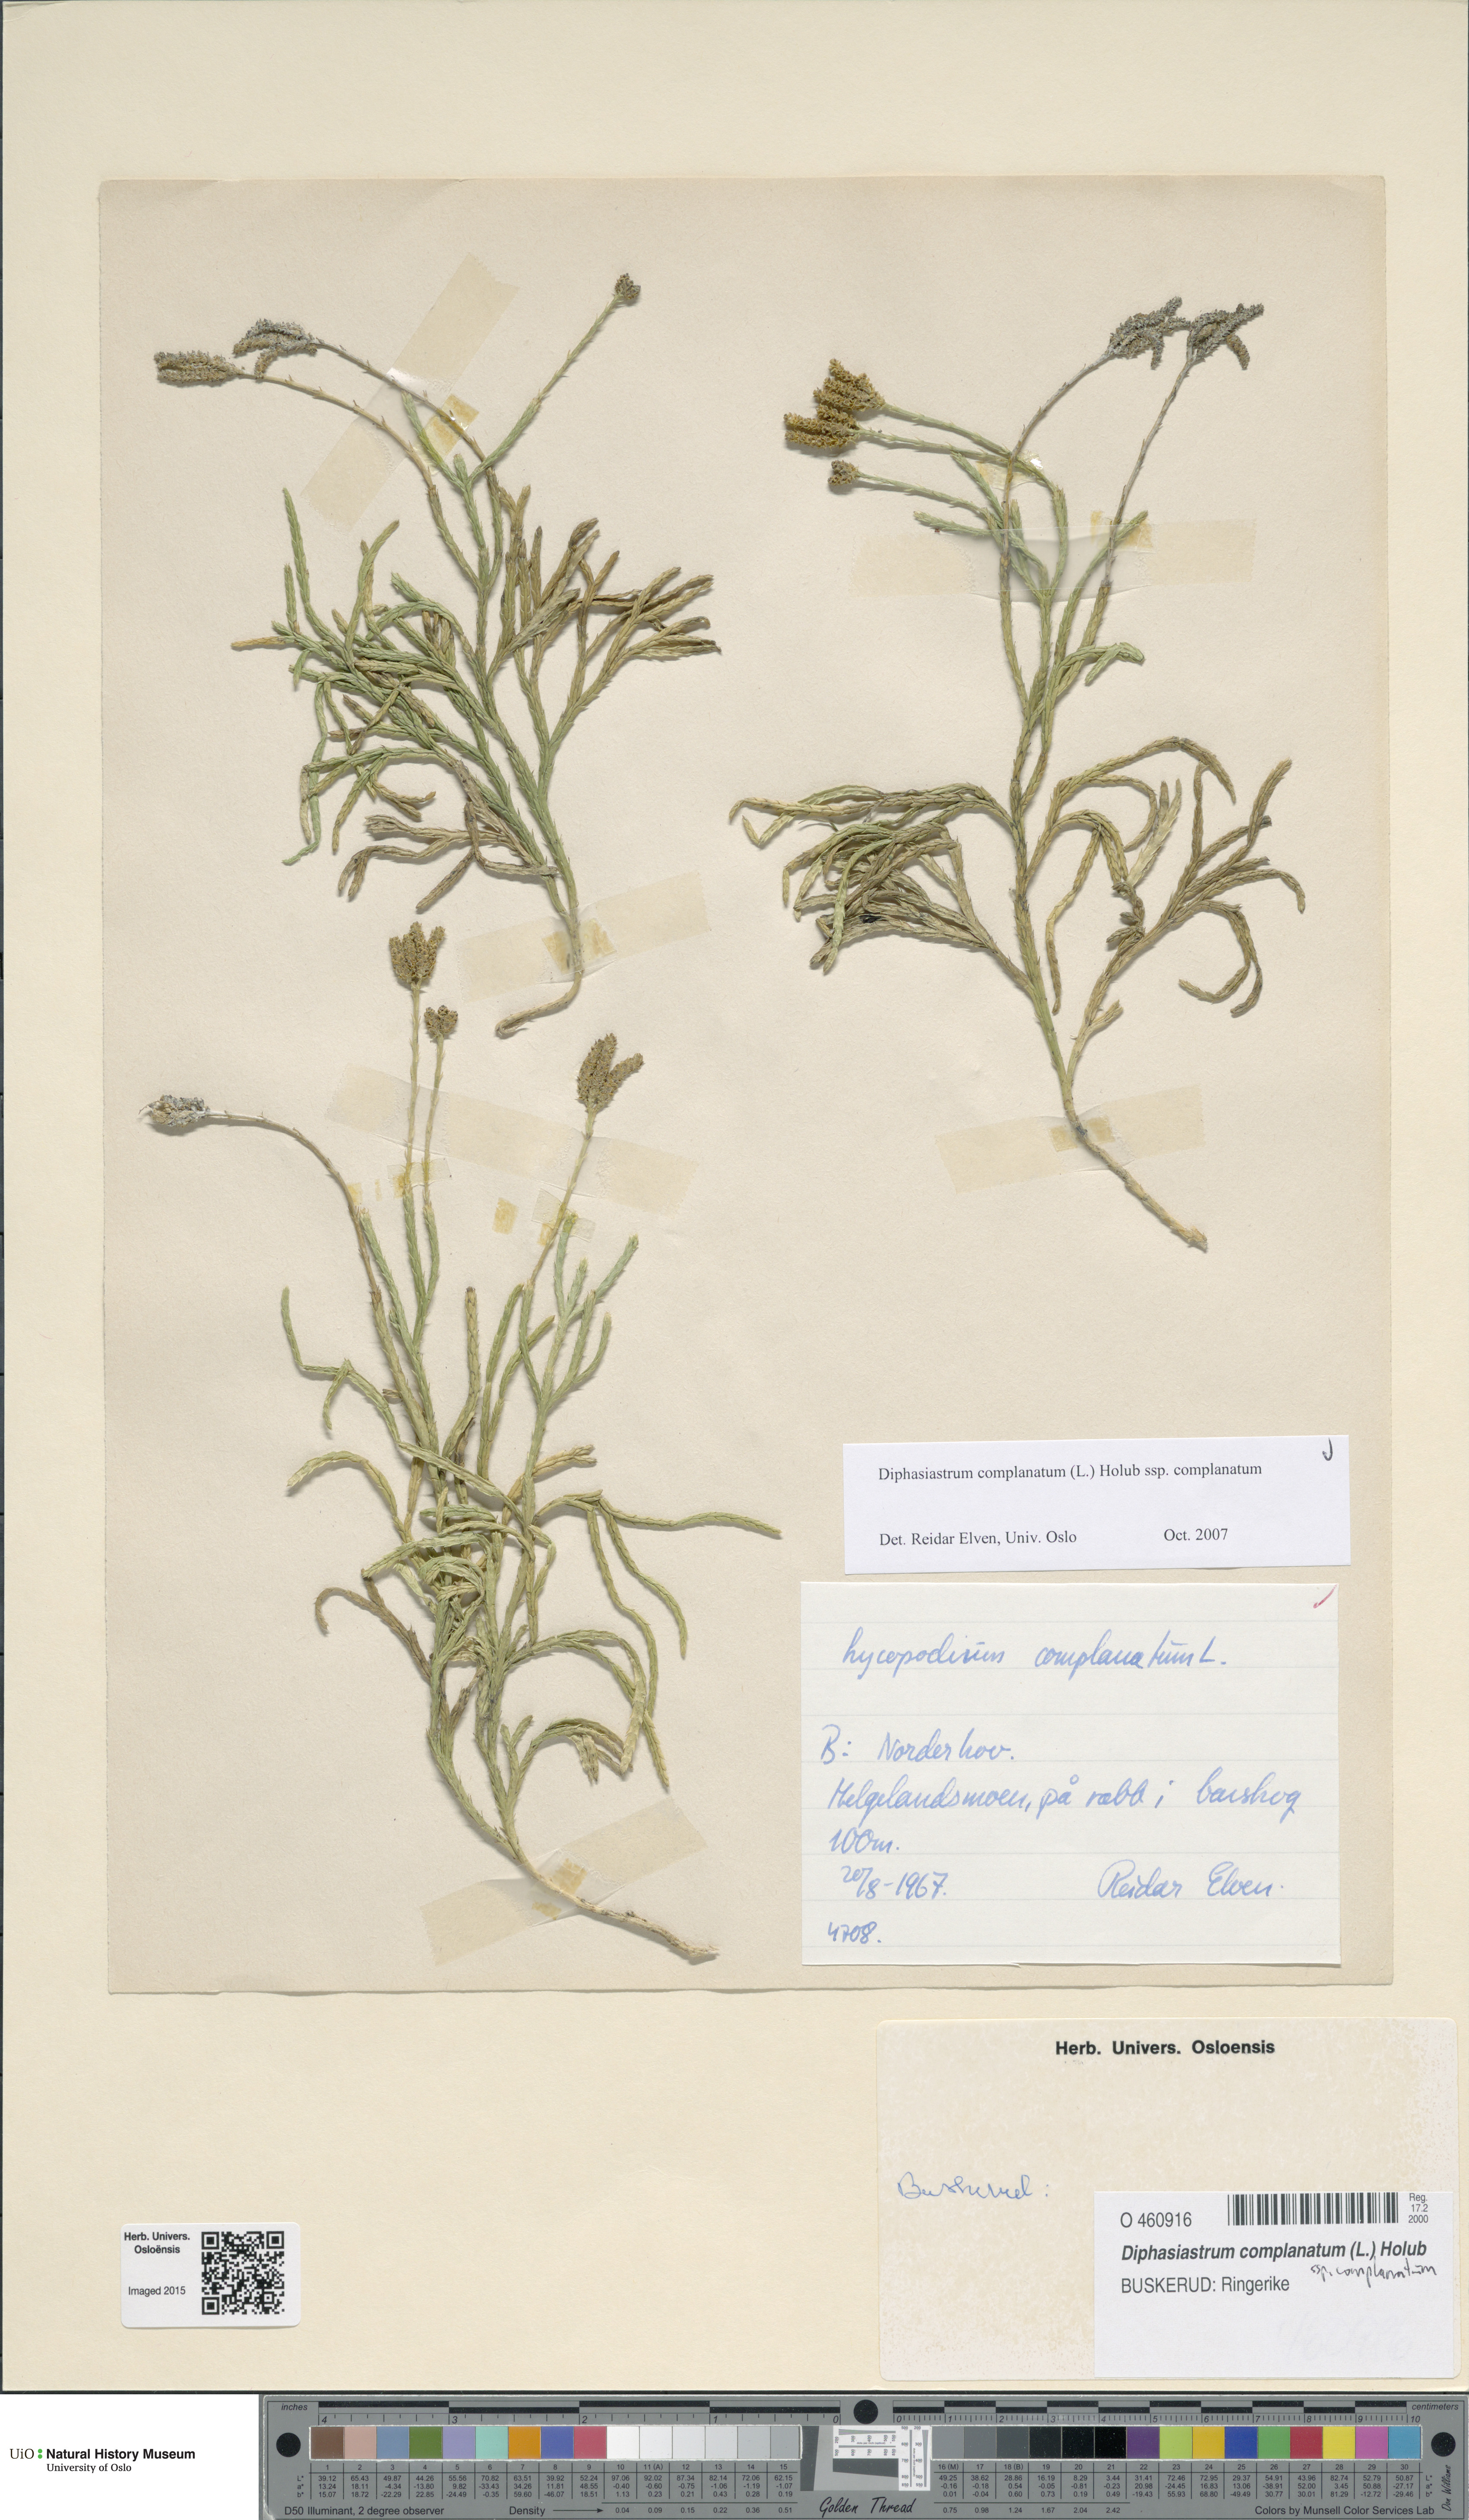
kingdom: Plantae
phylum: Tracheophyta
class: Lycopodiopsida
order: Lycopodiales
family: Lycopodiaceae
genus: Diphasiastrum
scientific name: Diphasiastrum complanatum
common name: Northern running-pine
